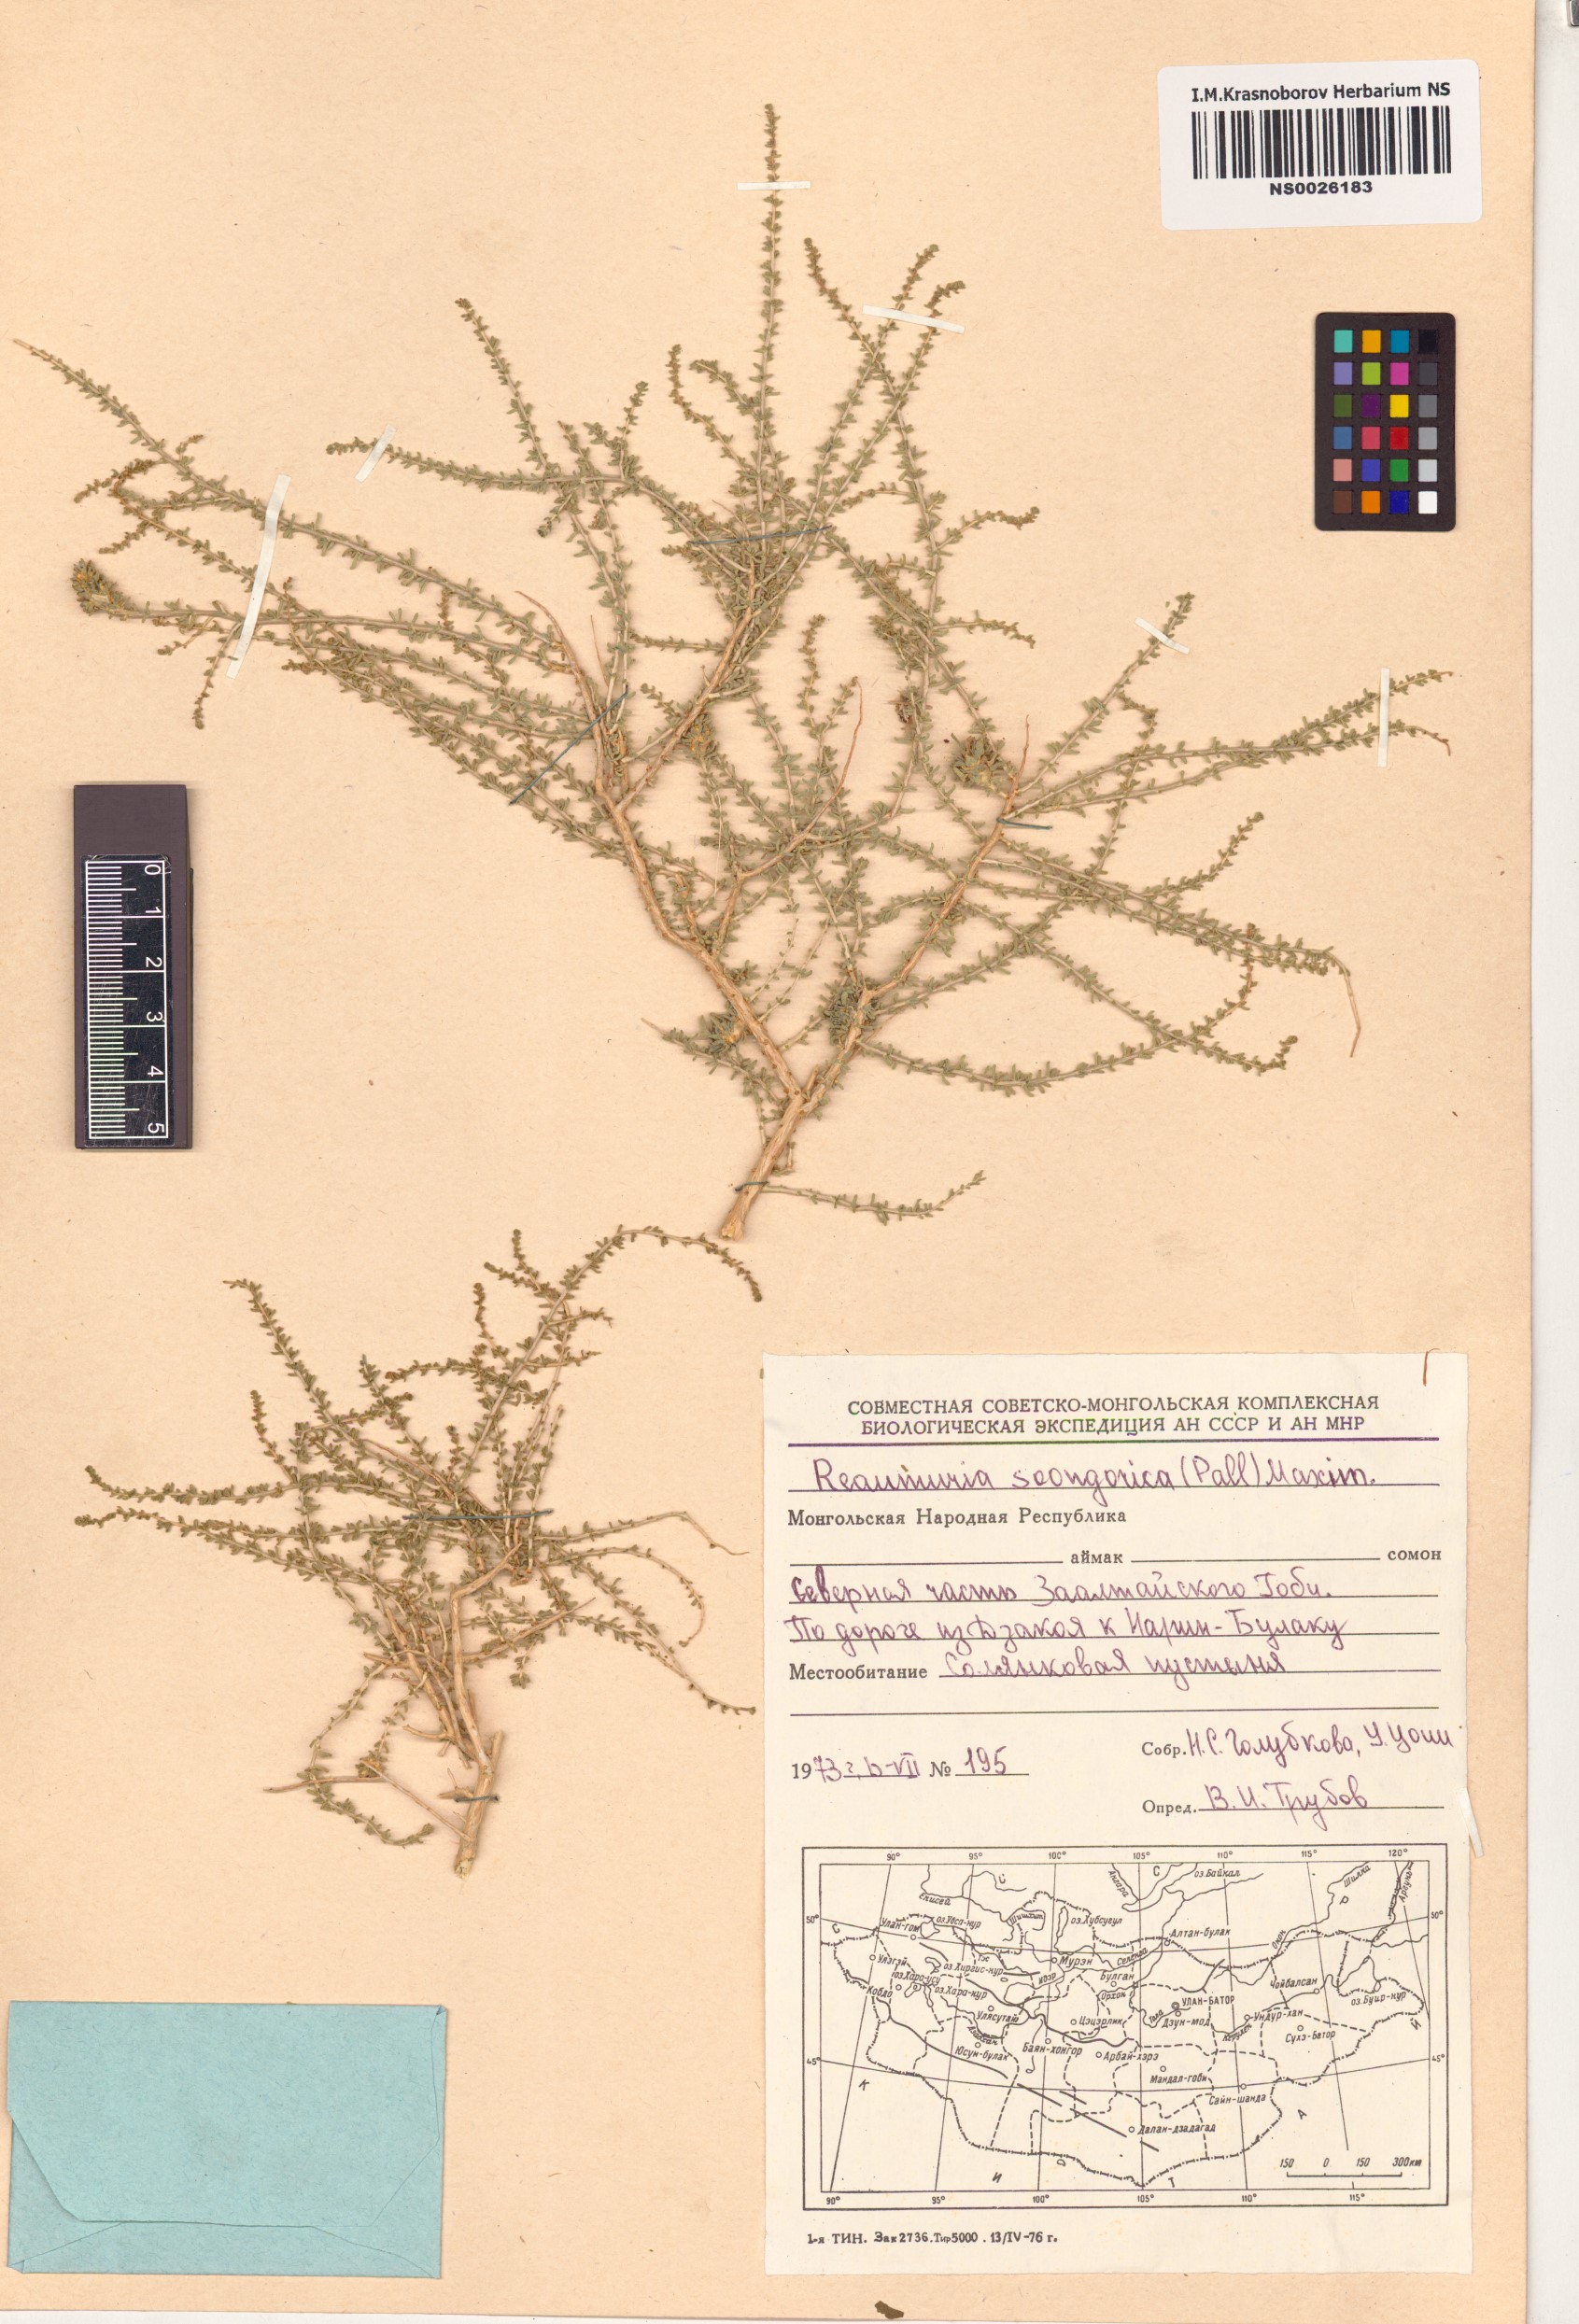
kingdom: Plantae
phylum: Tracheophyta
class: Magnoliopsida
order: Caryophyllales
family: Tamaricaceae
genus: Reaumuria
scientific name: Reaumuria songarica
